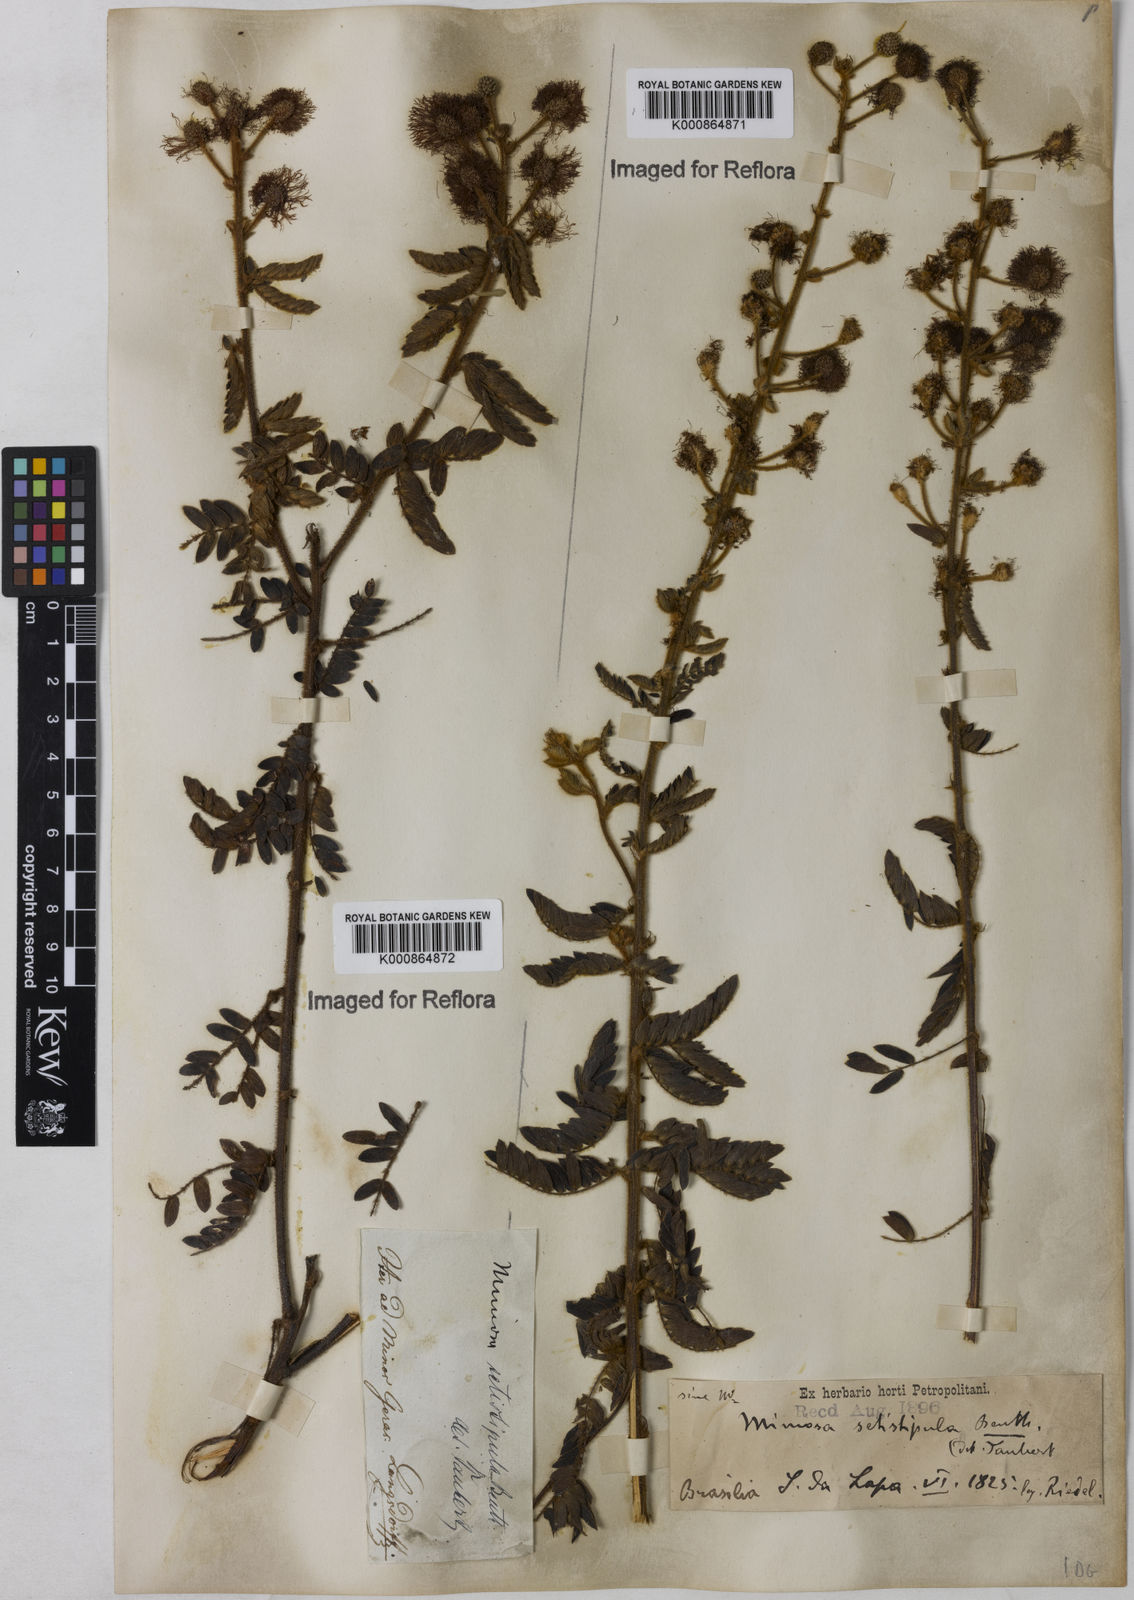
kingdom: Plantae
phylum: Tracheophyta
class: Magnoliopsida
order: Fabales
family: Fabaceae
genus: Mimosa
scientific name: Mimosa setistipula
